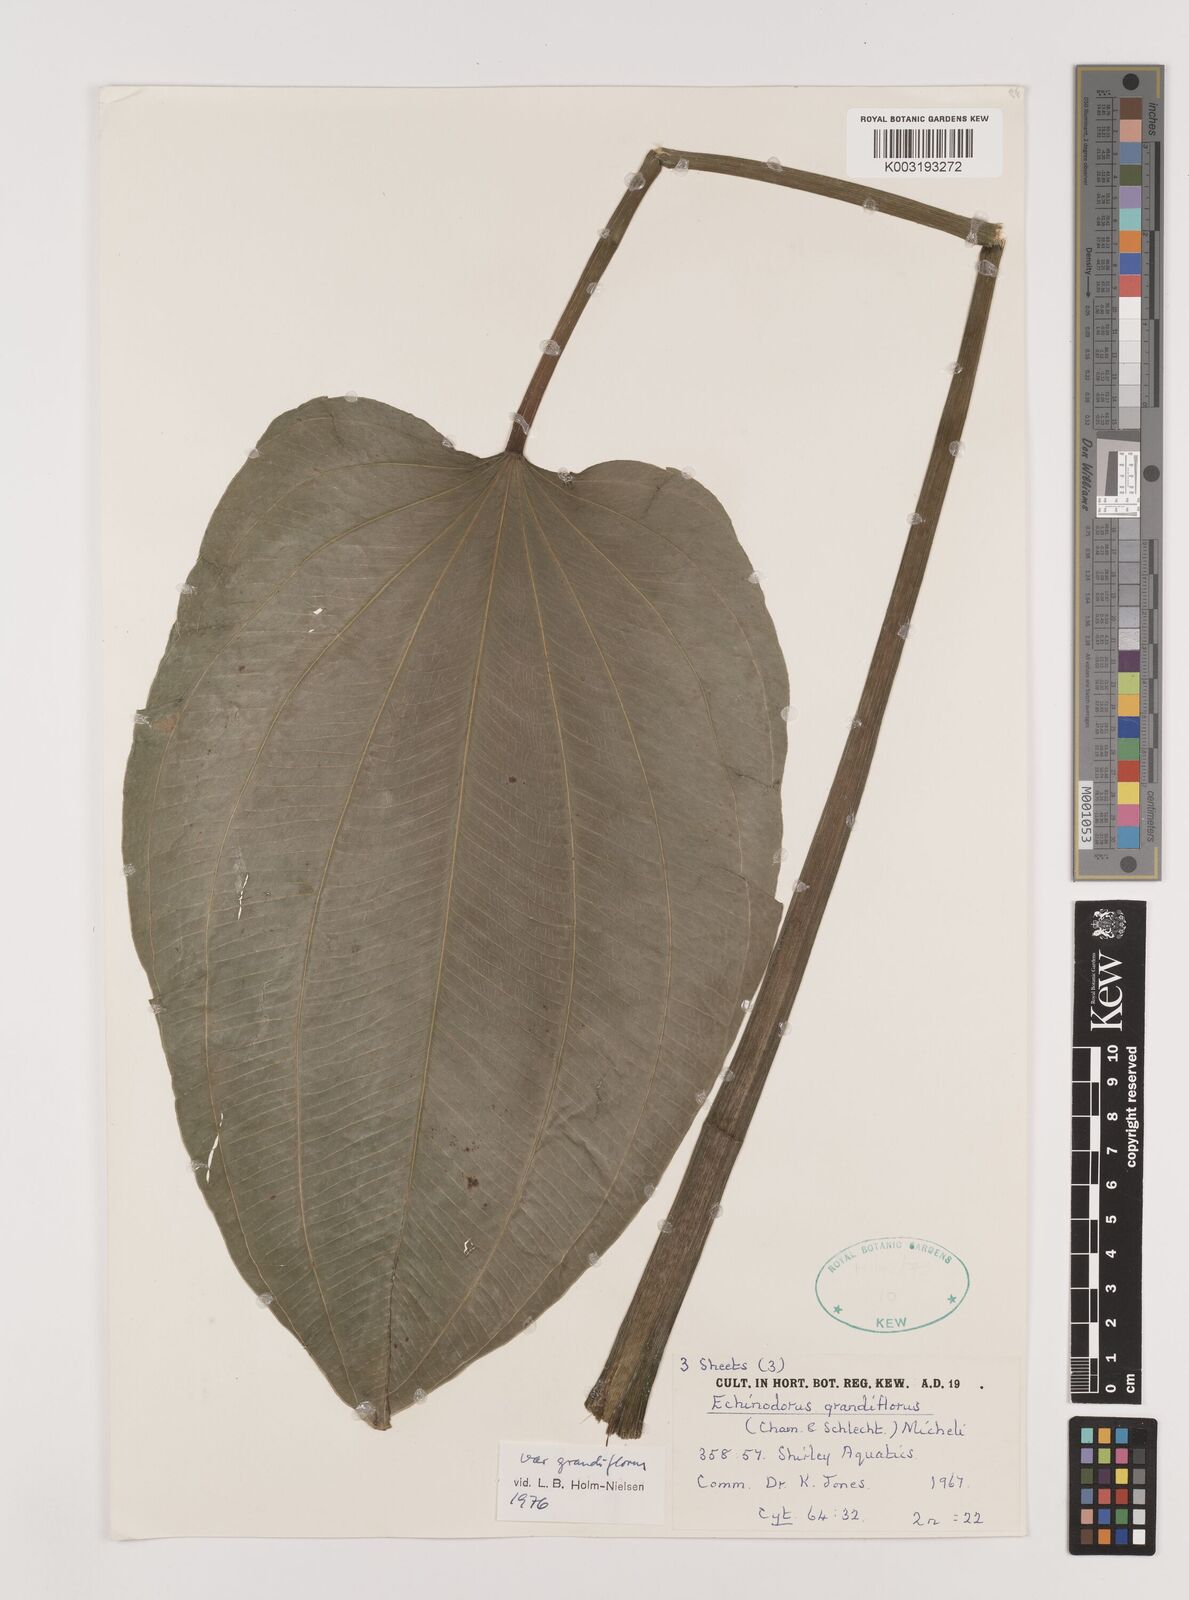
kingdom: Plantae
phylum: Tracheophyta
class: Liliopsida
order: Alismatales
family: Alismataceae
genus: Aquarius
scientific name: Aquarius grandiflorus
